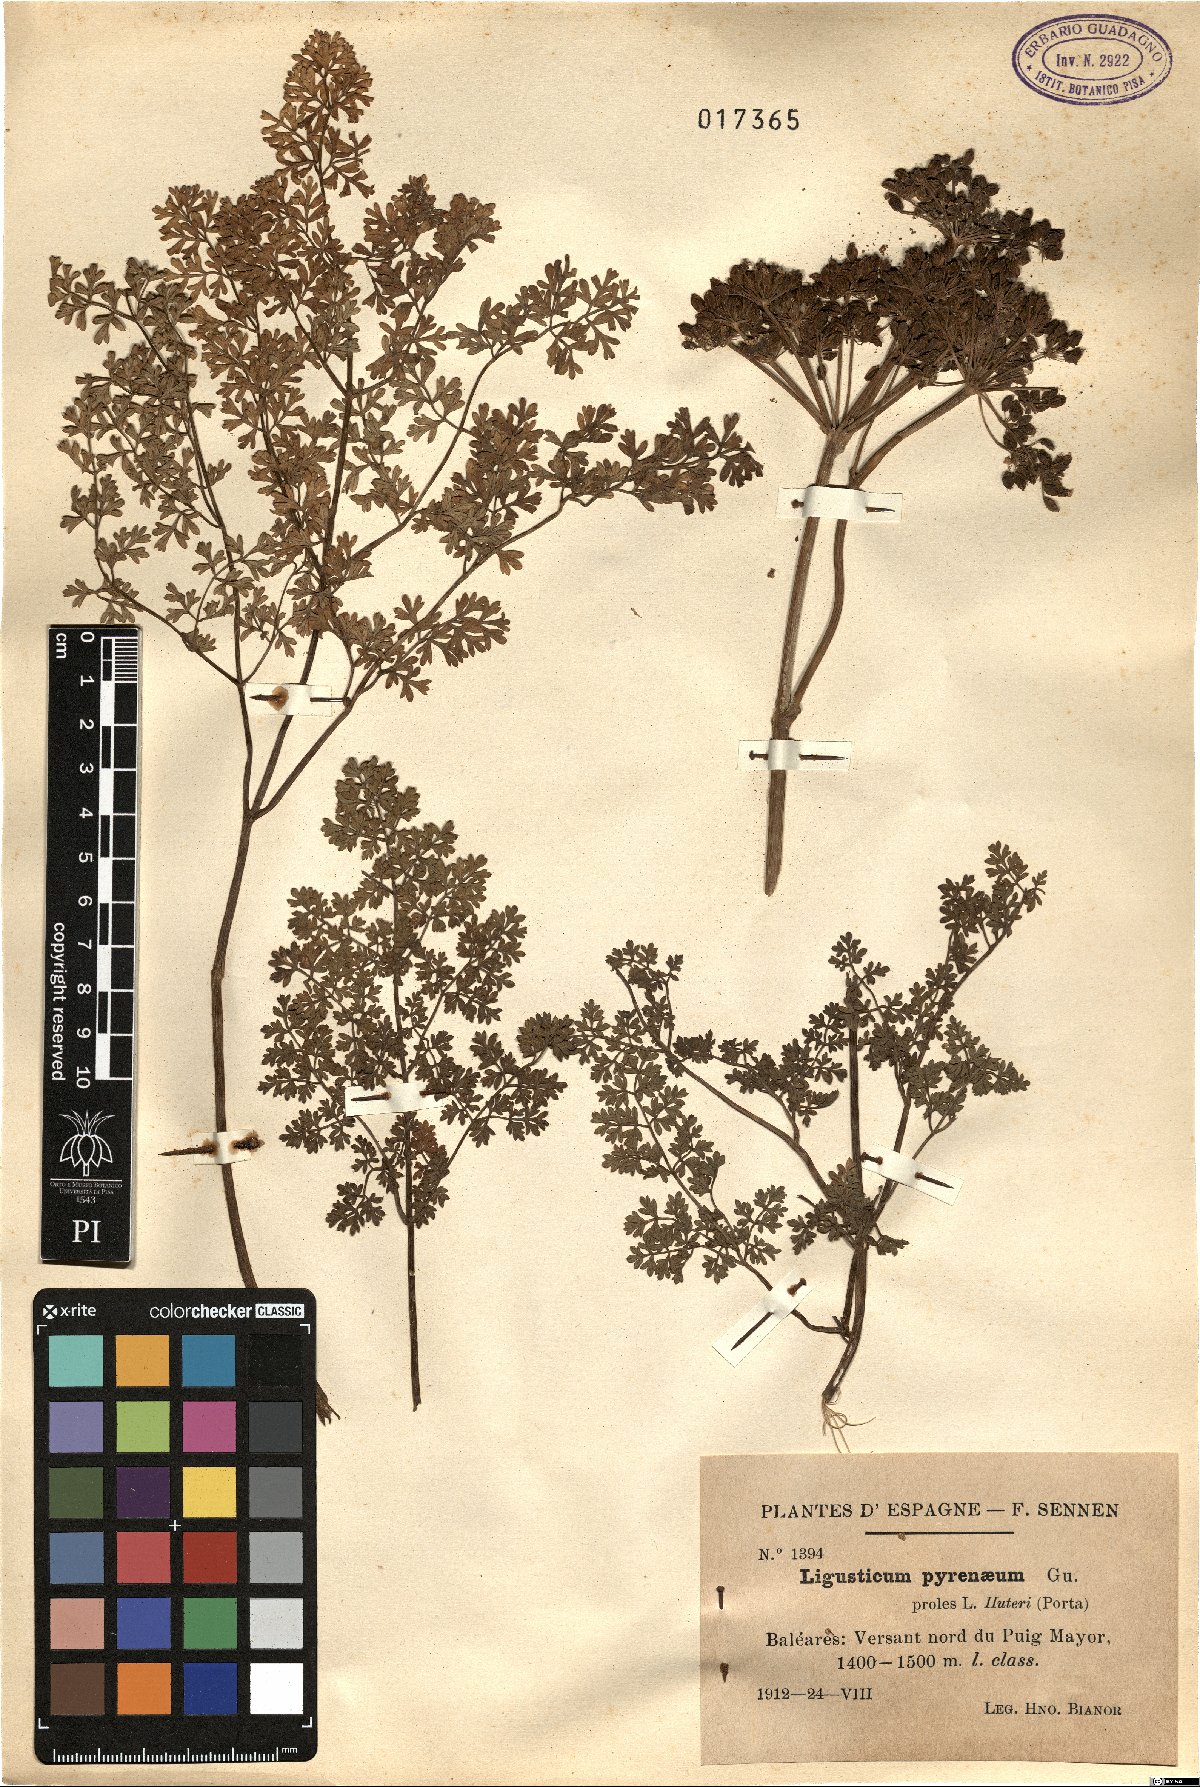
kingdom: Plantae
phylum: Tracheophyta
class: Magnoliopsida
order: Apiales
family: Apiaceae
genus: Coristospermum
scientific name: Coristospermum lucidum
